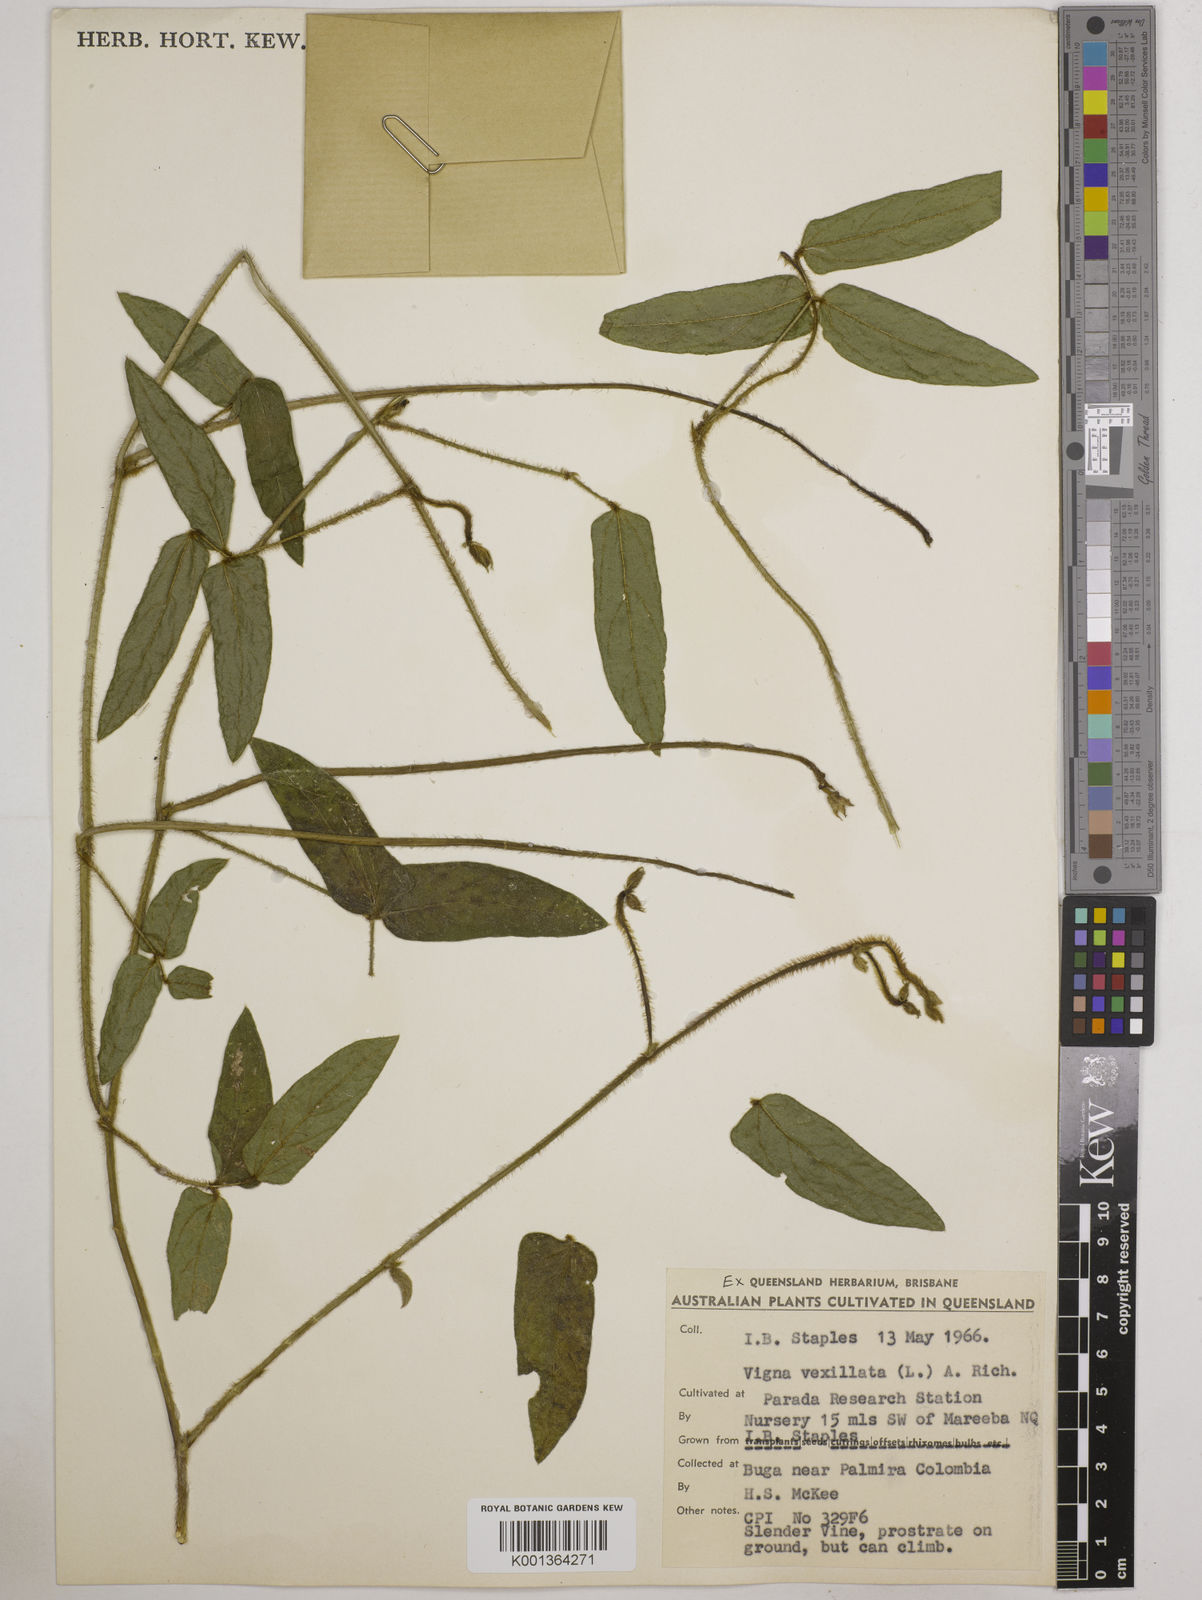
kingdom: Plantae
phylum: Tracheophyta
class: Magnoliopsida
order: Fabales
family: Fabaceae
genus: Vigna
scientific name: Vigna vexillata
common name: Zombi pea
